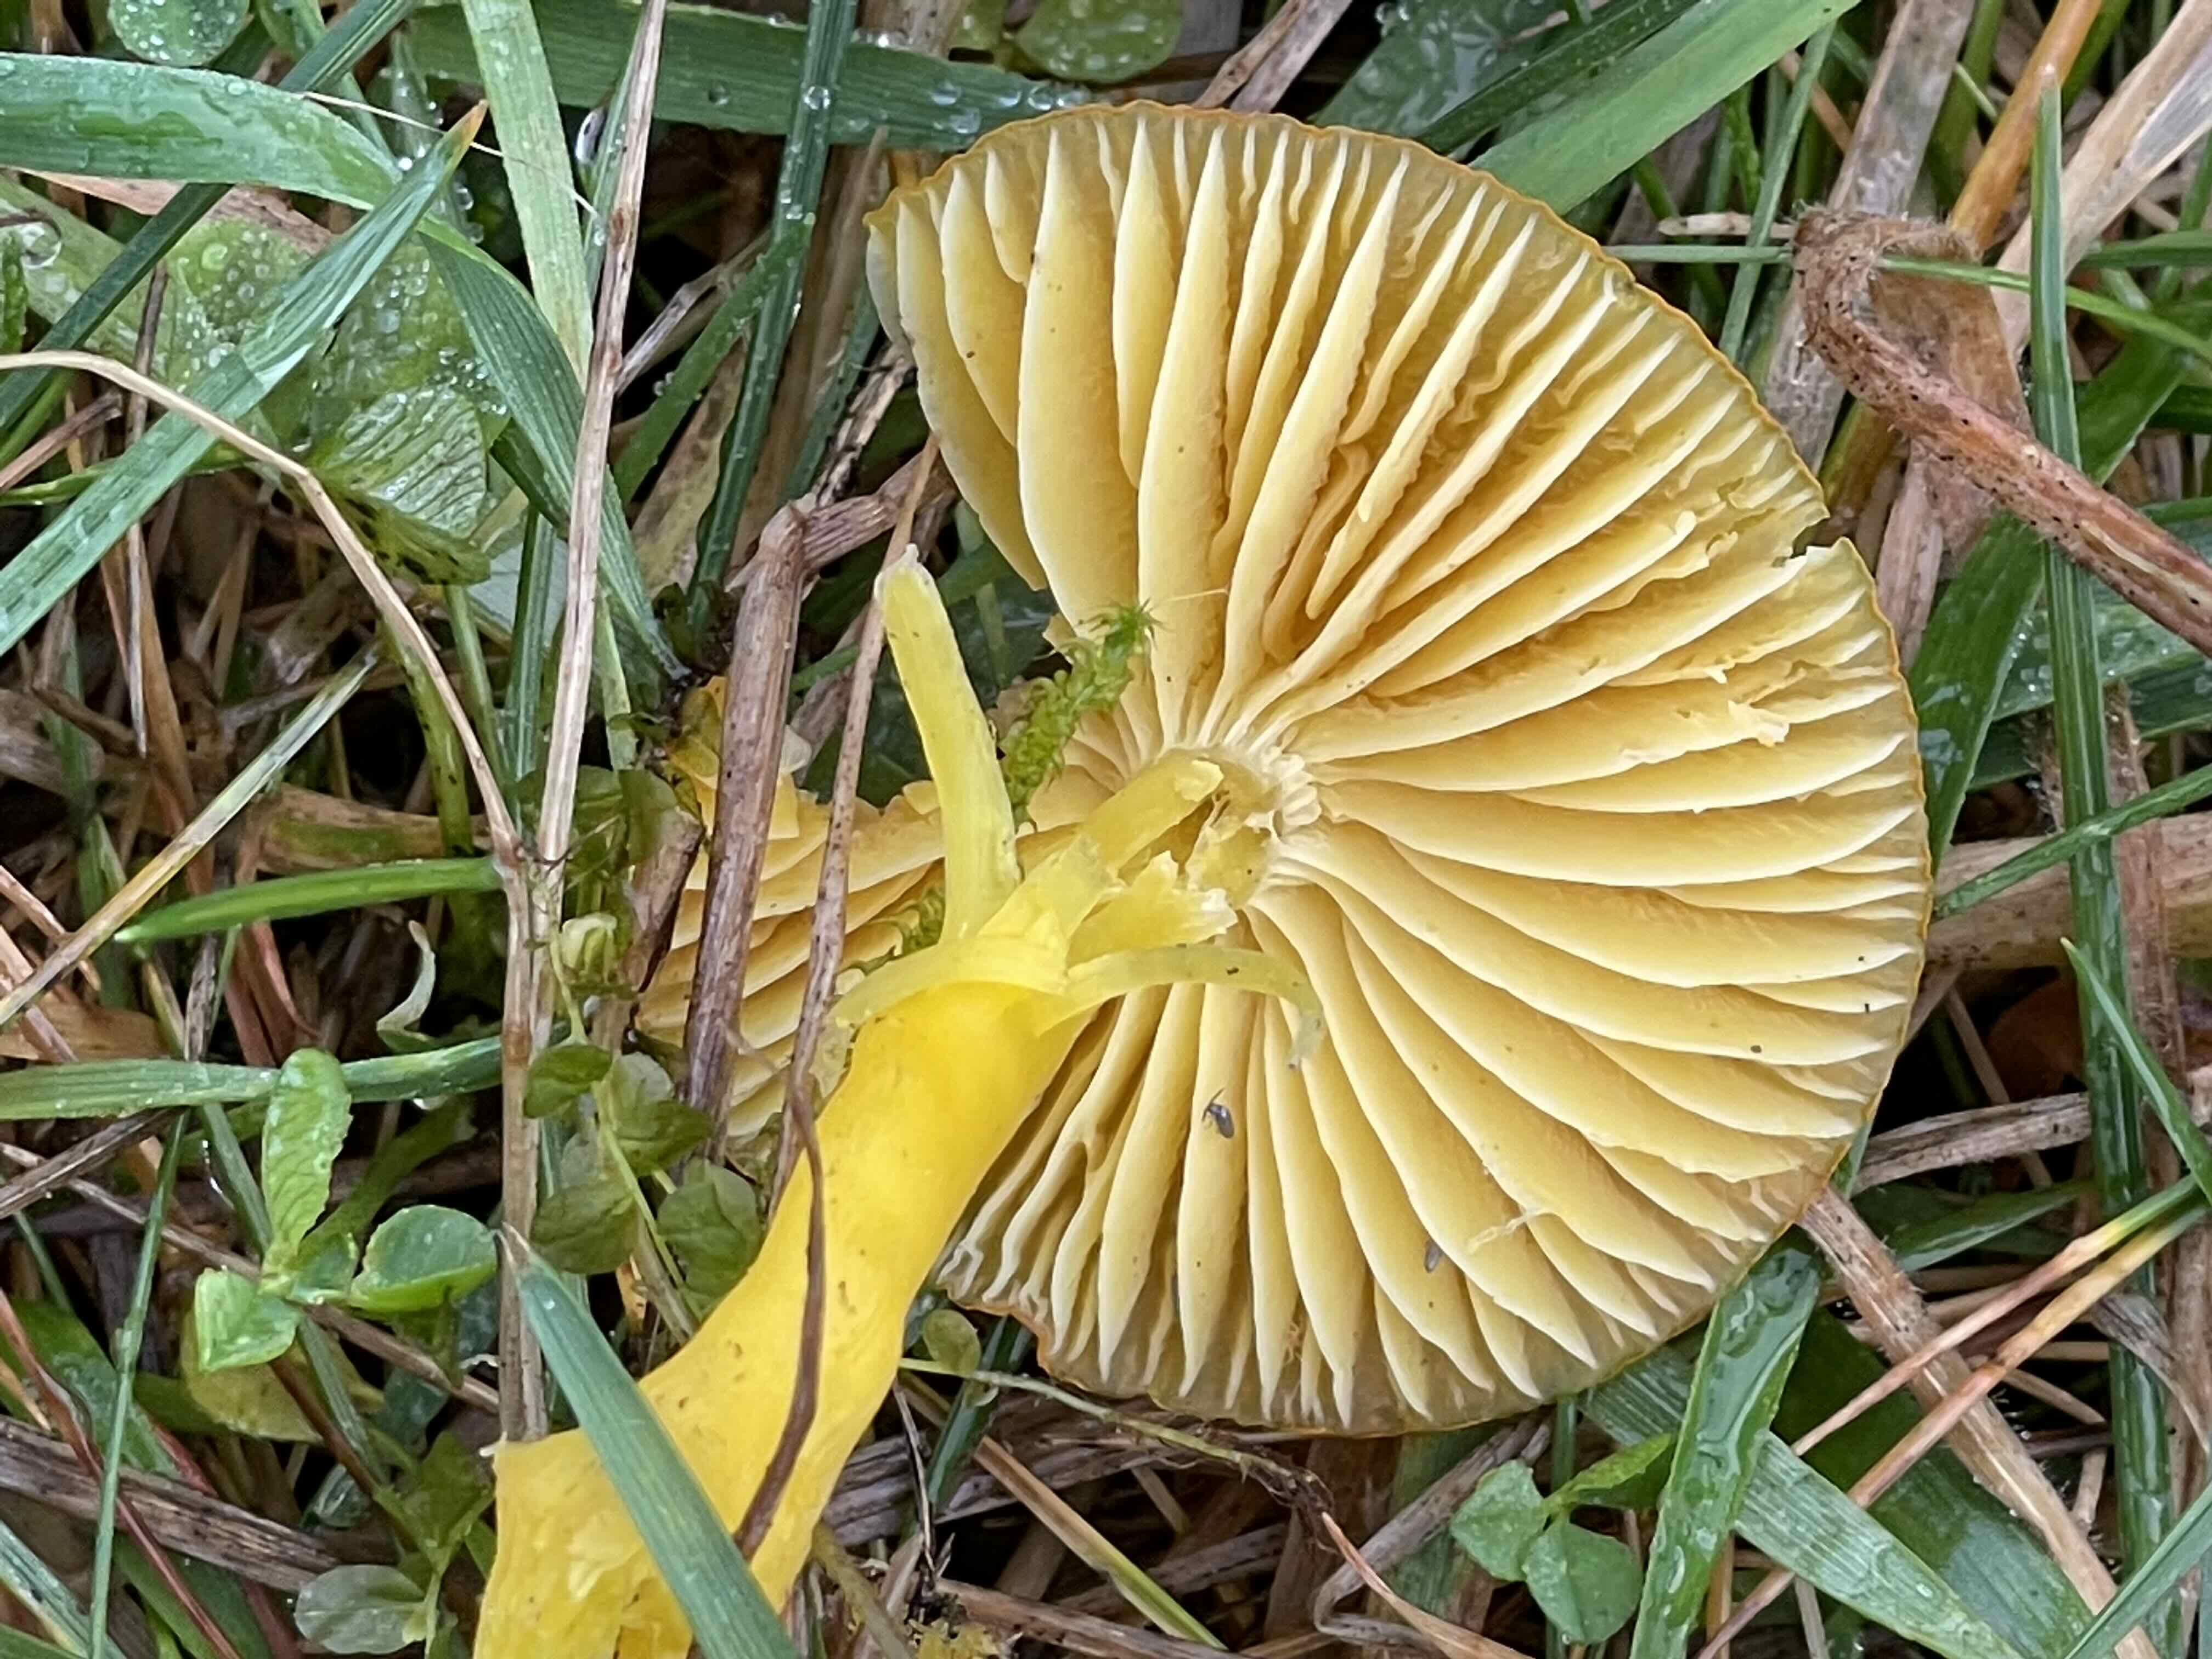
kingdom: Fungi
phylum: Basidiomycota
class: Agaricomycetes
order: Agaricales
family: Hygrophoraceae
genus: Hygrocybe
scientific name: Hygrocybe ceracea
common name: voksgul vokshat
